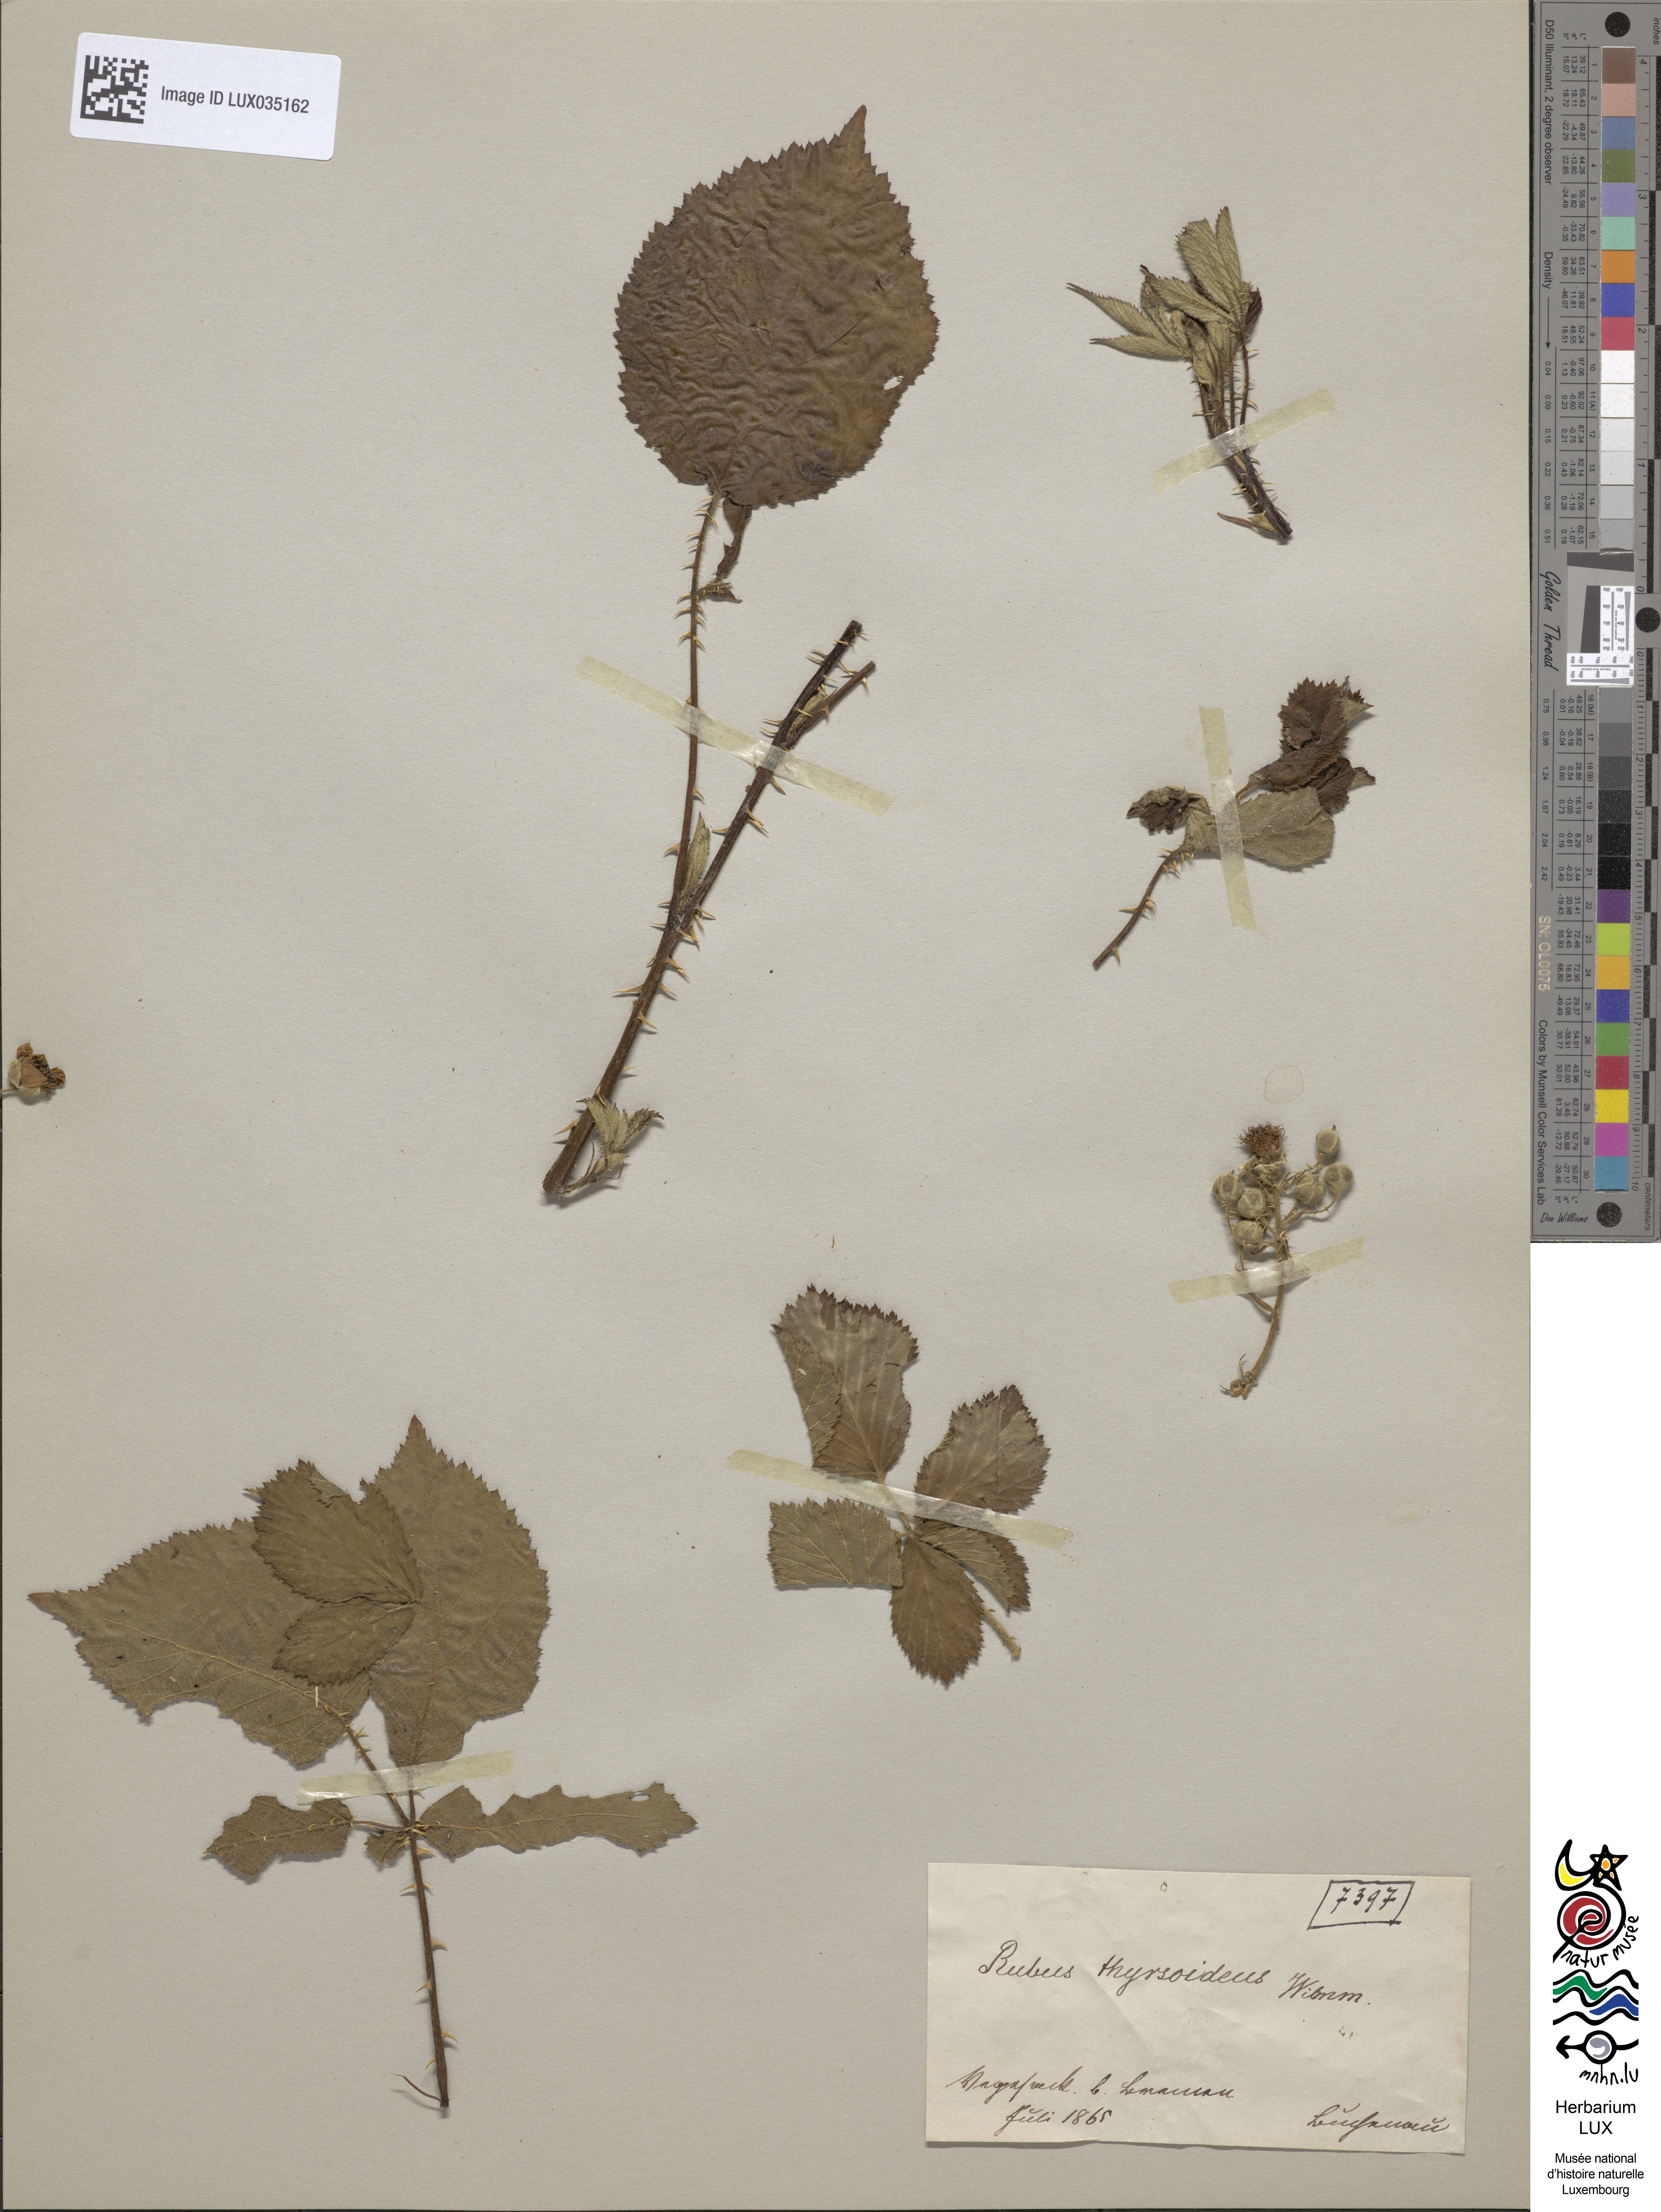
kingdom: Plantae
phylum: Tracheophyta
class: Magnoliopsida
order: Rosales
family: Rosaceae
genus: Rubus
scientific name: Rubus silesiacus
